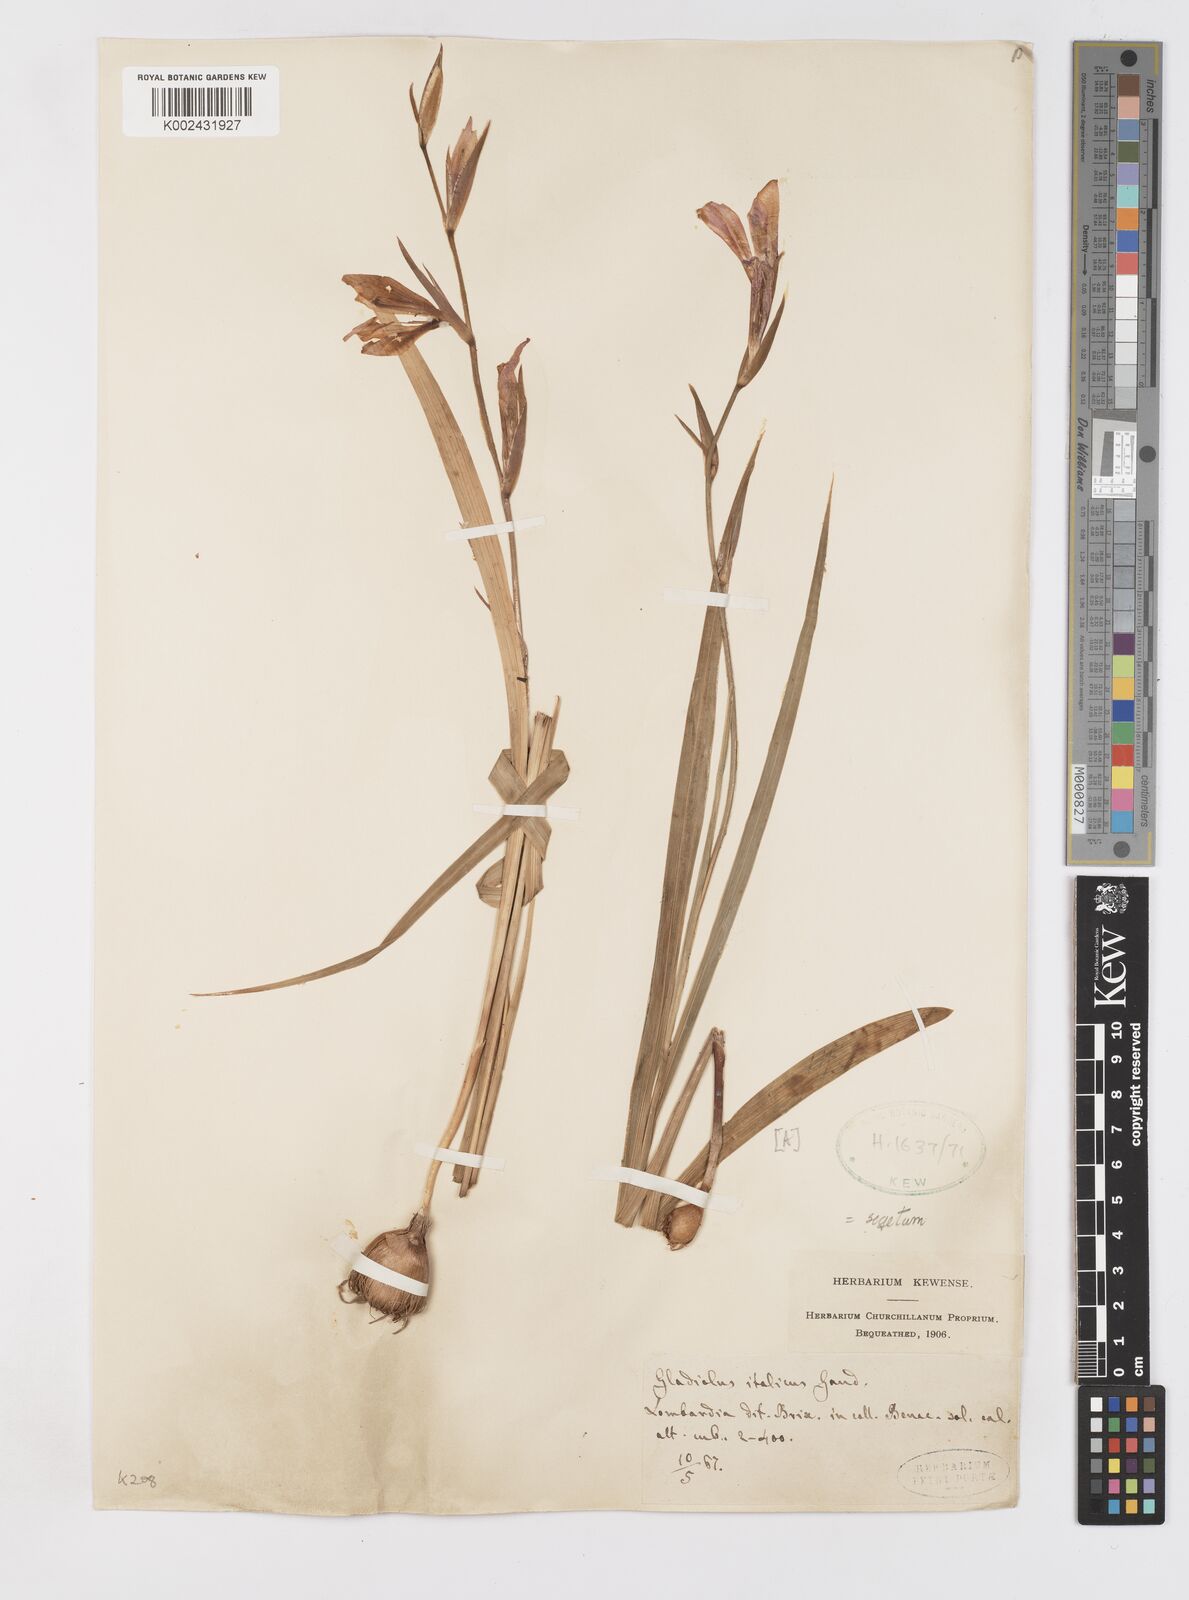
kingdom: Plantae
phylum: Tracheophyta
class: Liliopsida
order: Asparagales
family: Iridaceae
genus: Gladiolus
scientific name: Gladiolus italicus
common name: Field gladiolus
